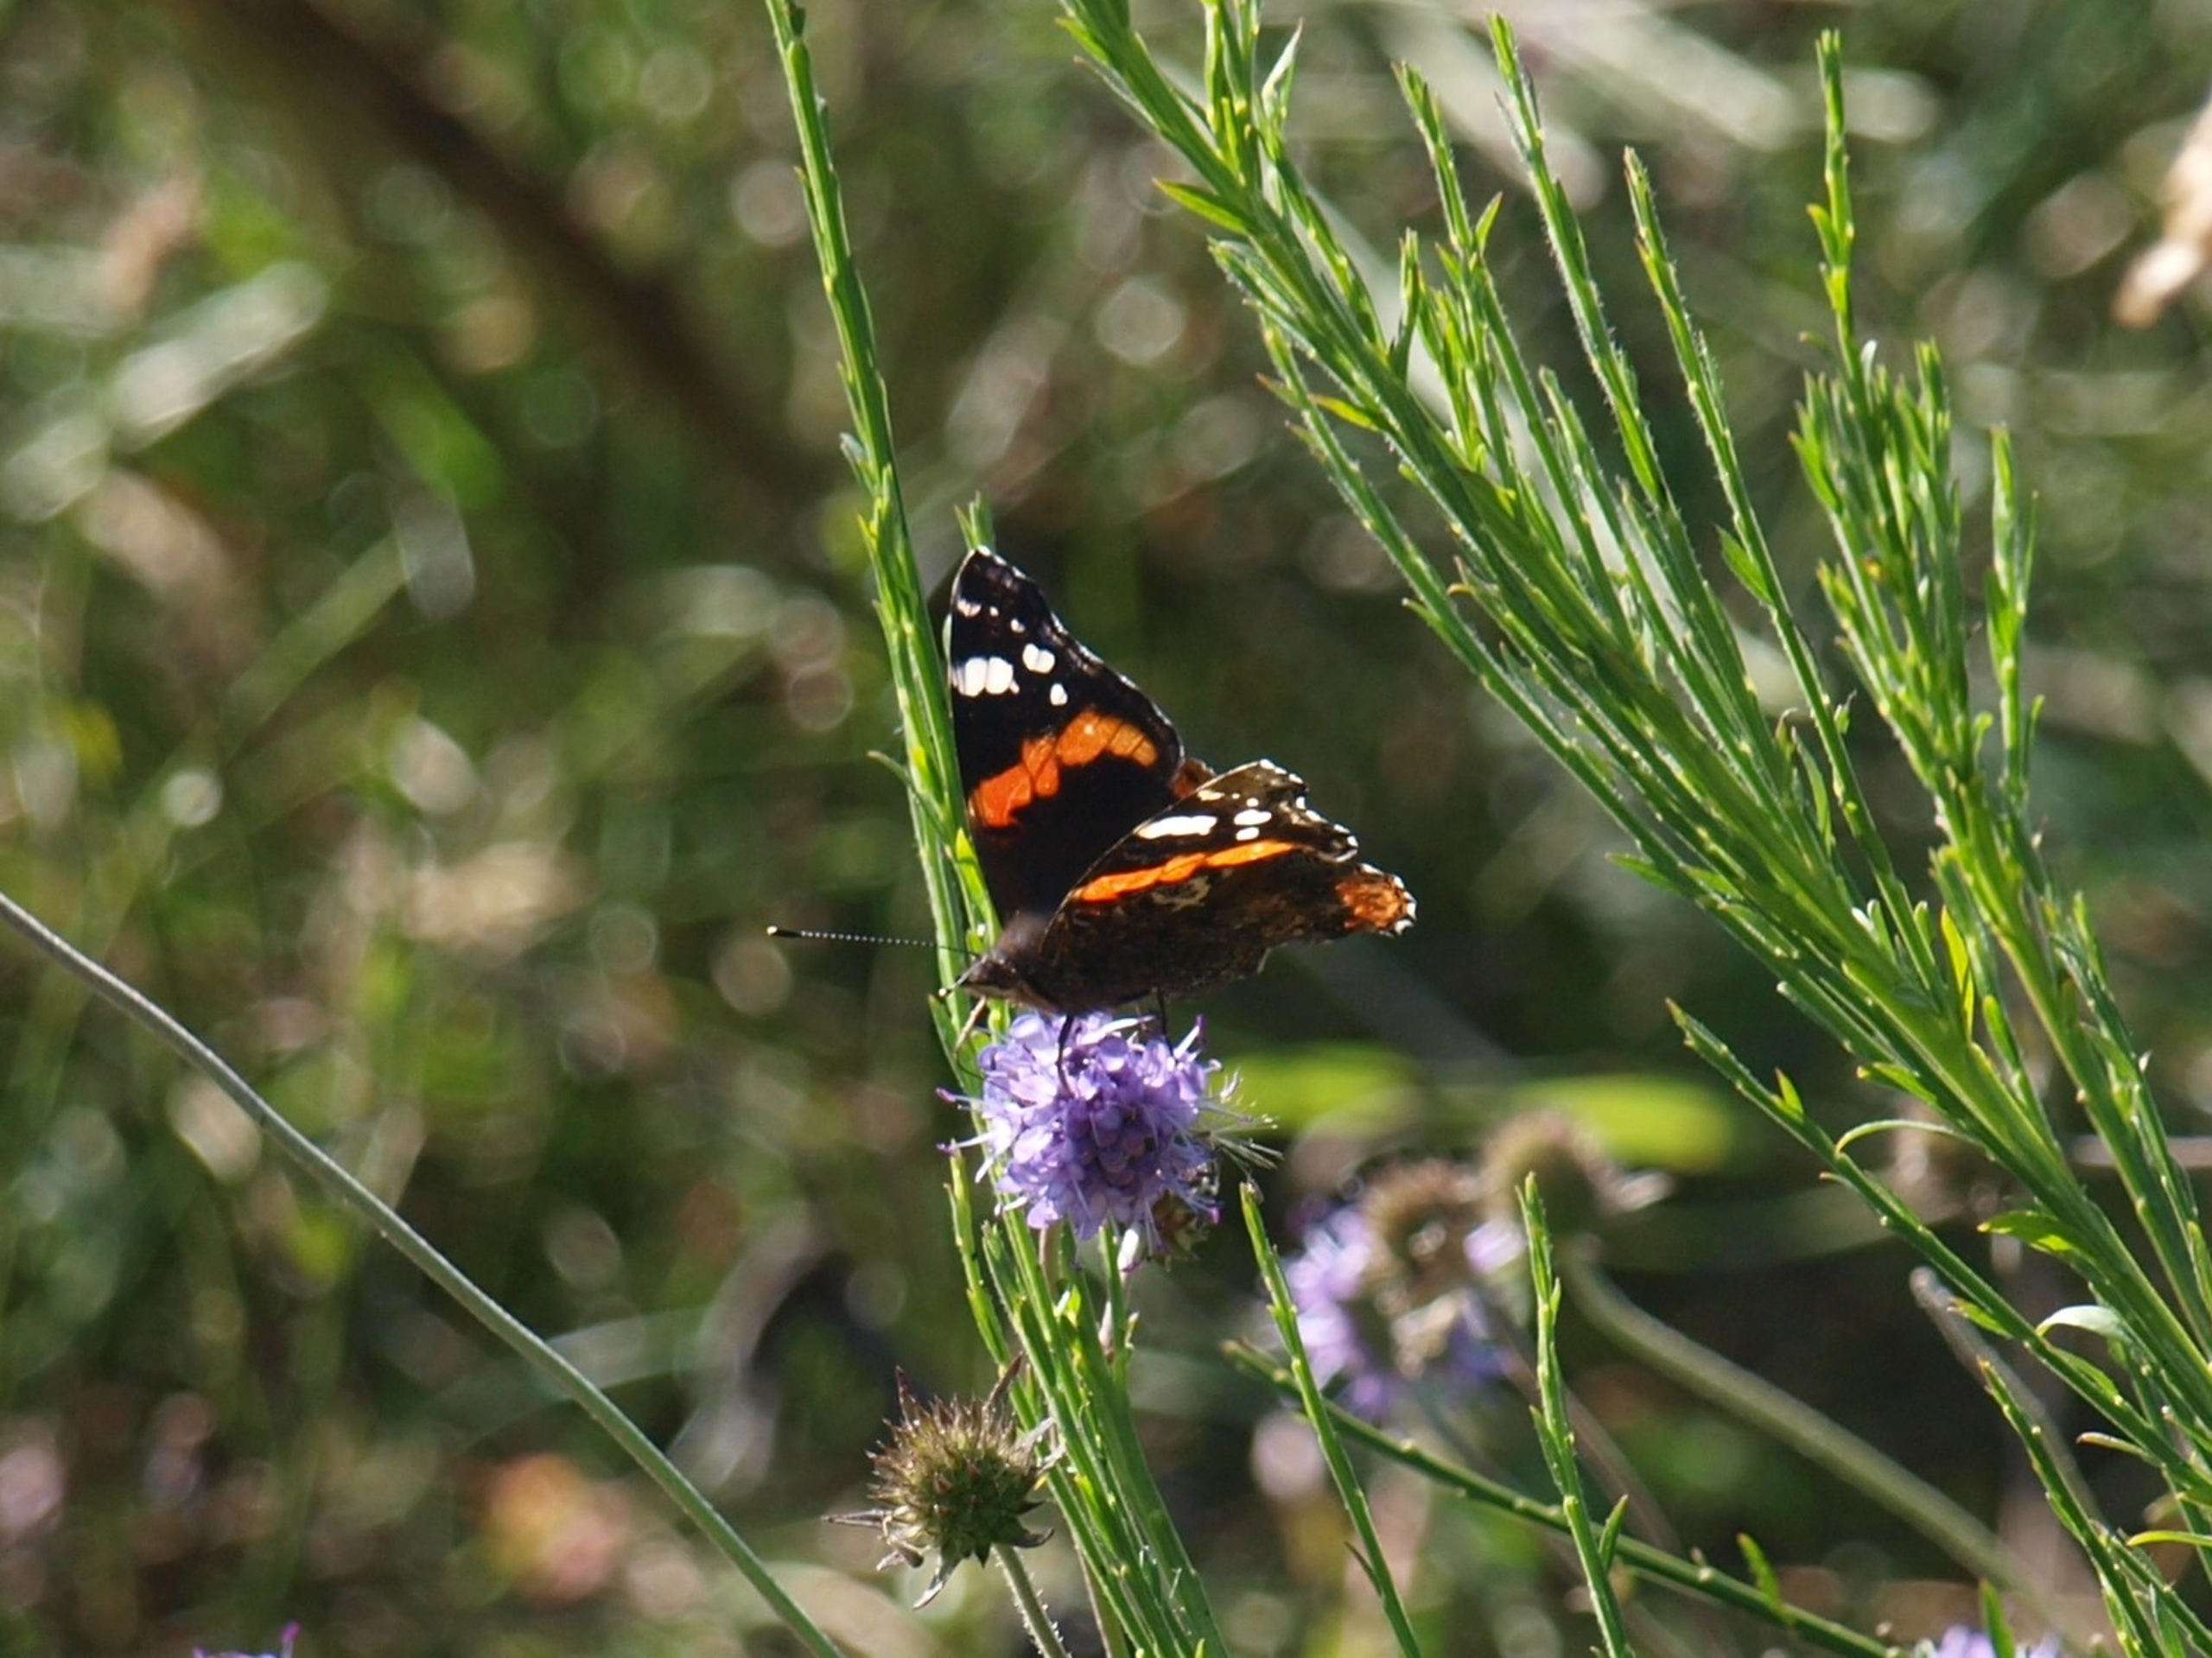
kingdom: Animalia
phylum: Arthropoda
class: Insecta
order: Lepidoptera
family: Nymphalidae
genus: Vanessa
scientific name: Vanessa atalanta
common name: Admiral
